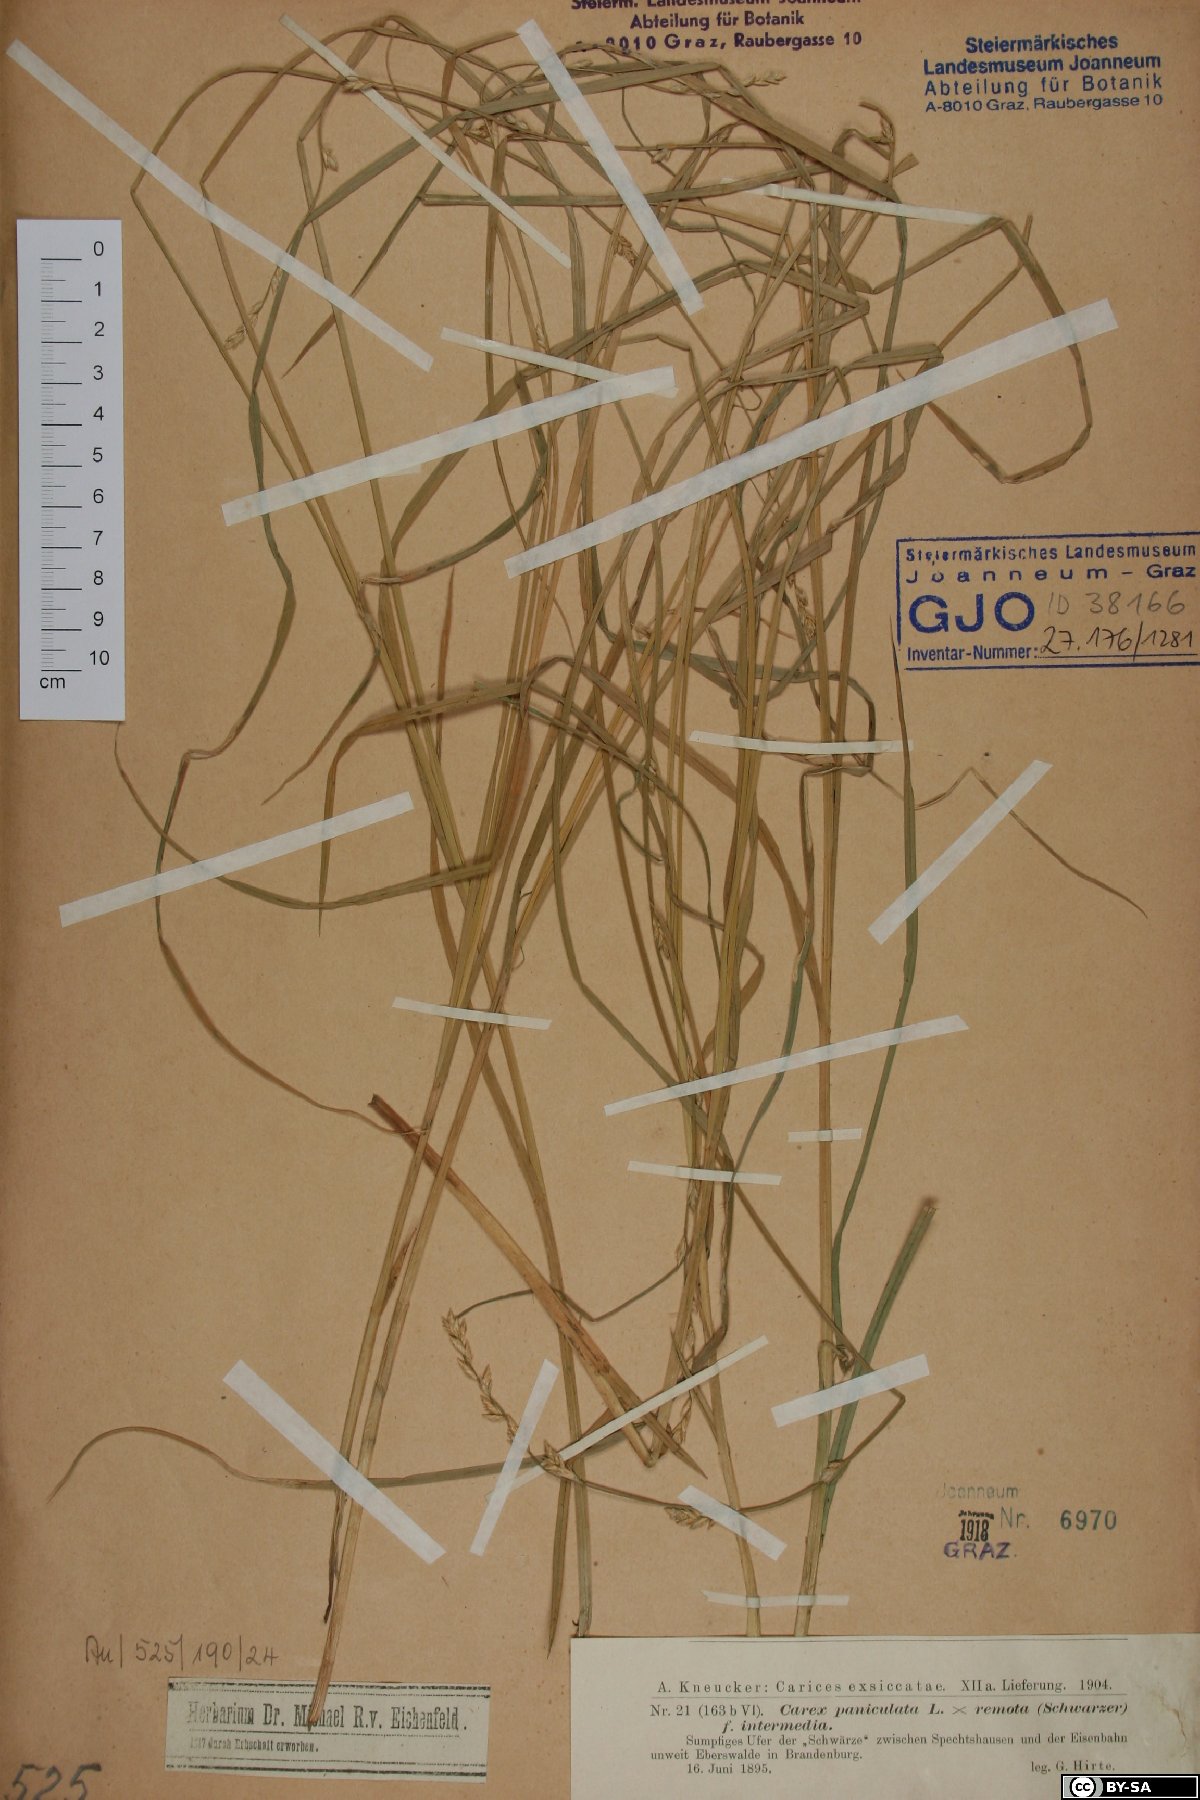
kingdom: Plantae
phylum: Tracheophyta
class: Liliopsida
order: Poales
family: Cyperaceae
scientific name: Cyperaceae
